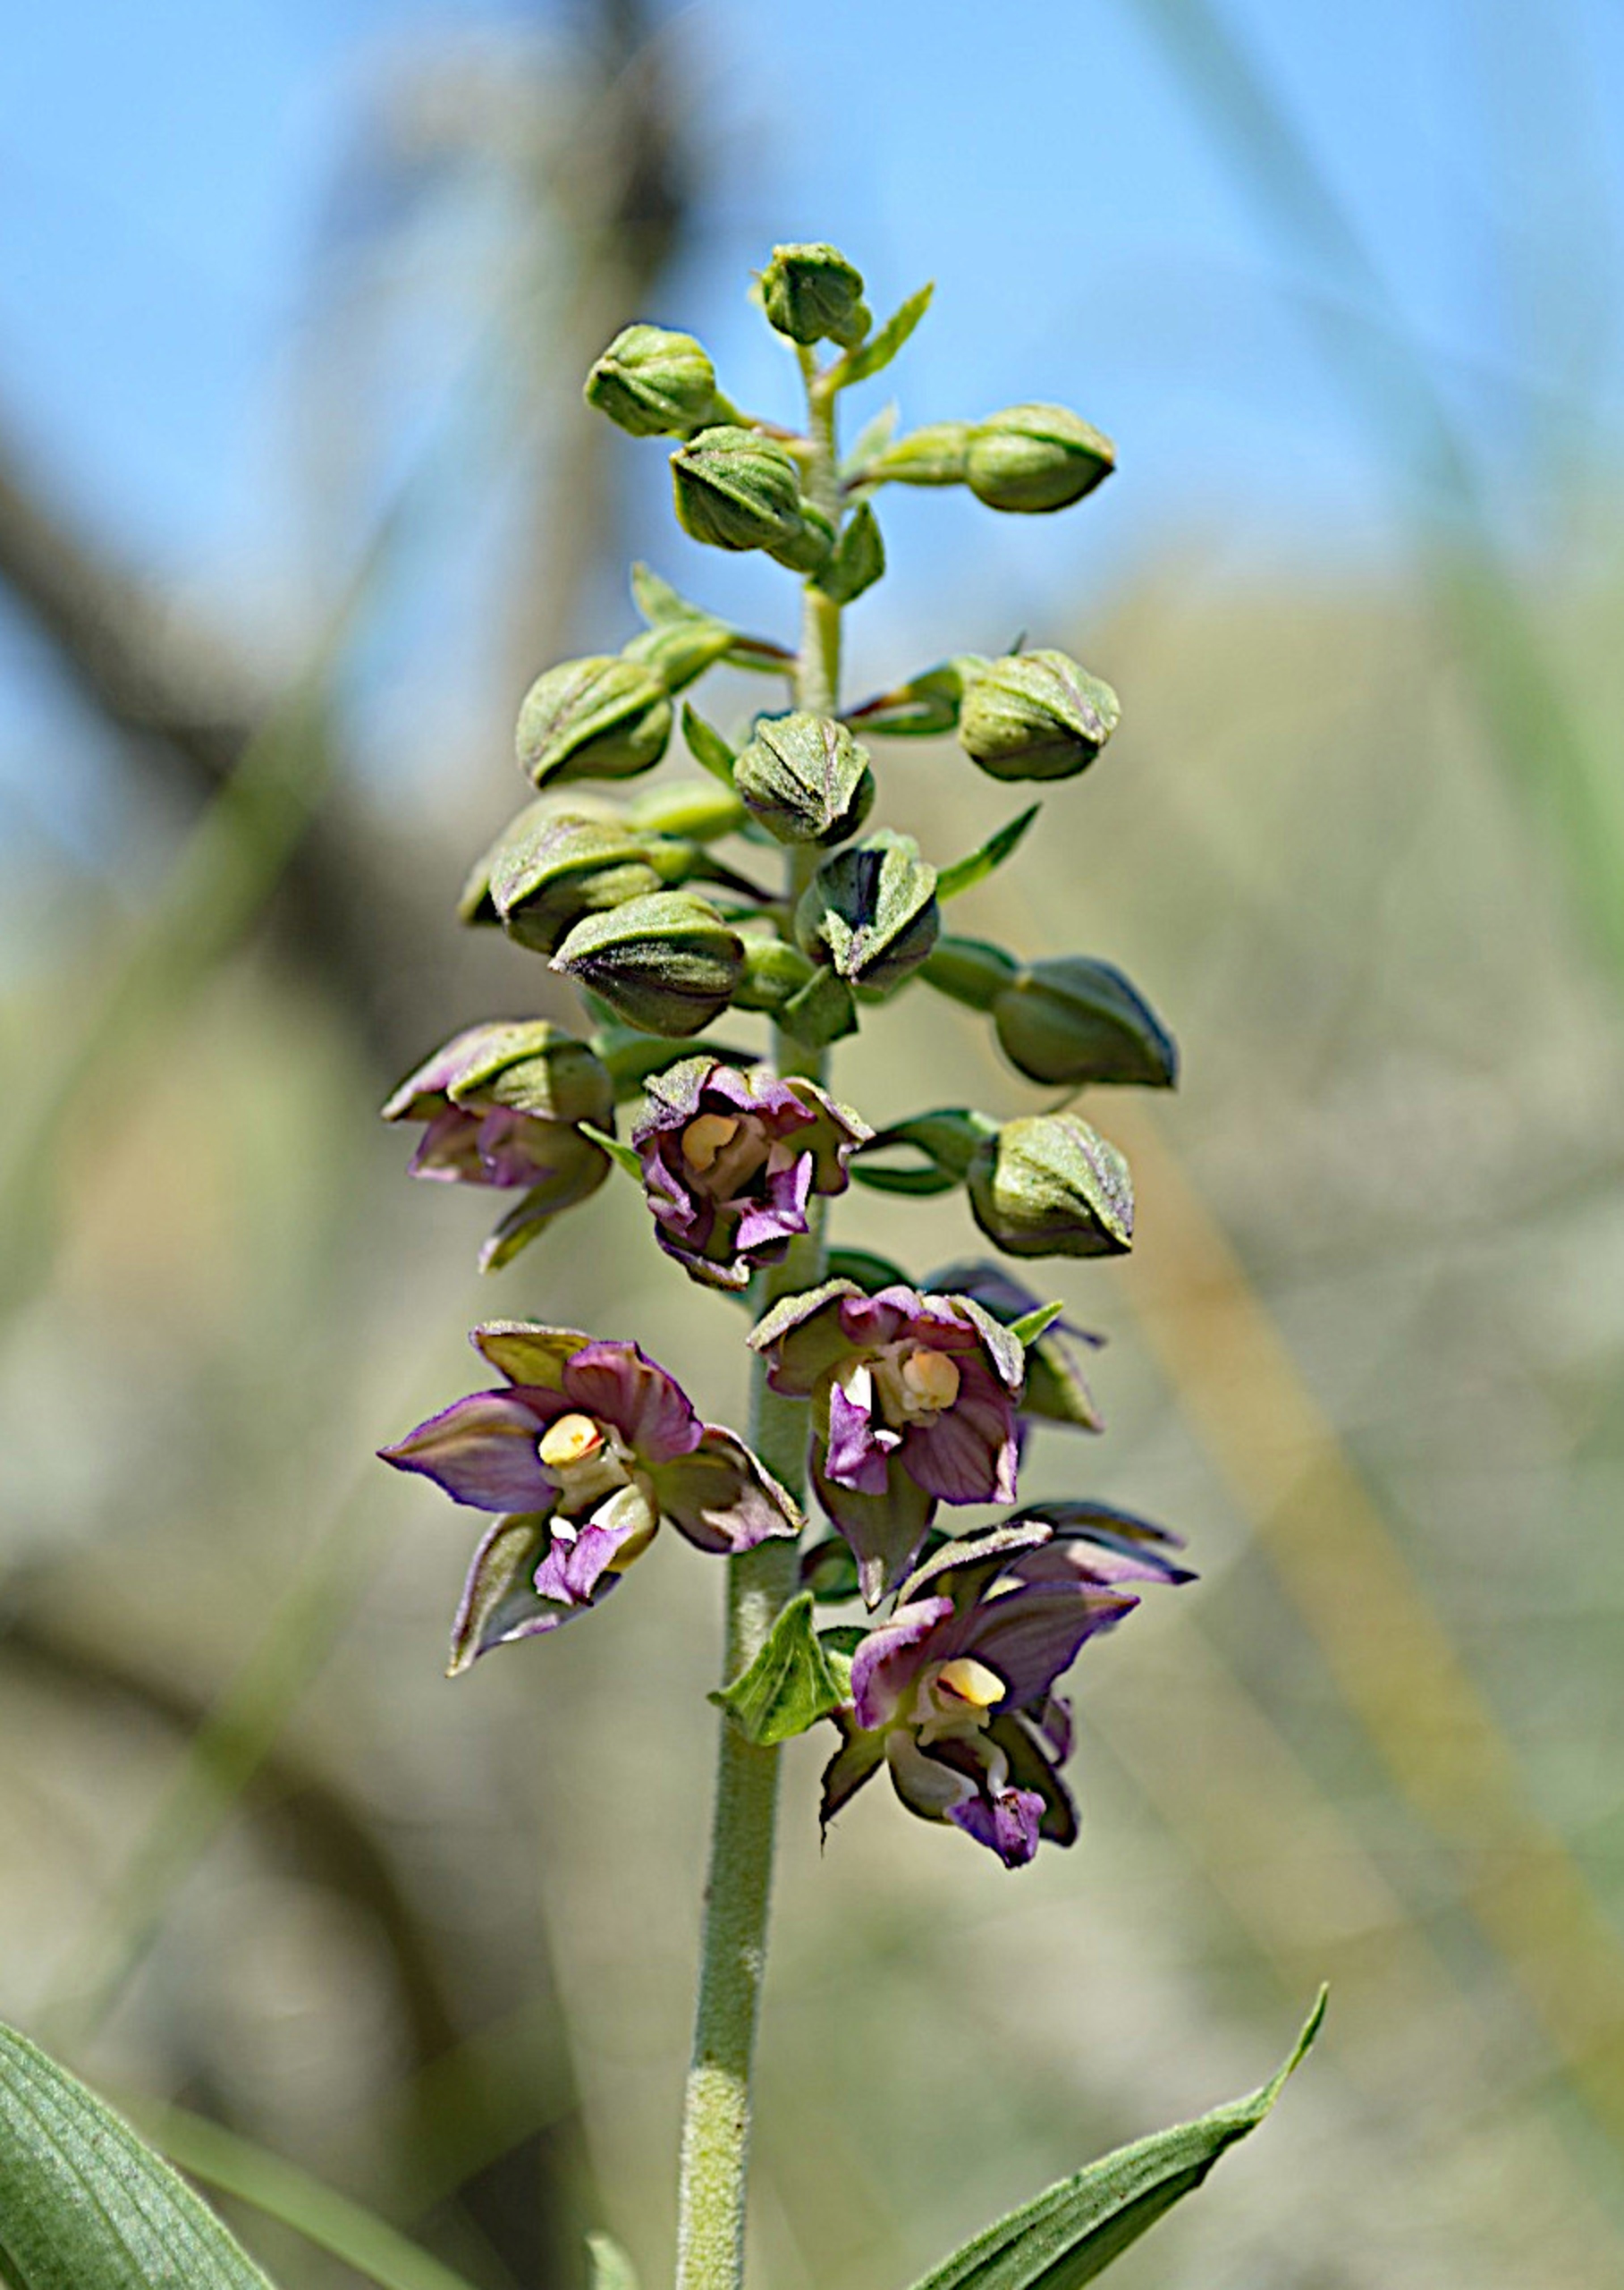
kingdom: Plantae
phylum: Tracheophyta
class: Liliopsida
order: Asparagales
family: Orchidaceae
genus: Epipactis
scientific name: Epipactis helleborine
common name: Skagen-hullæbe
